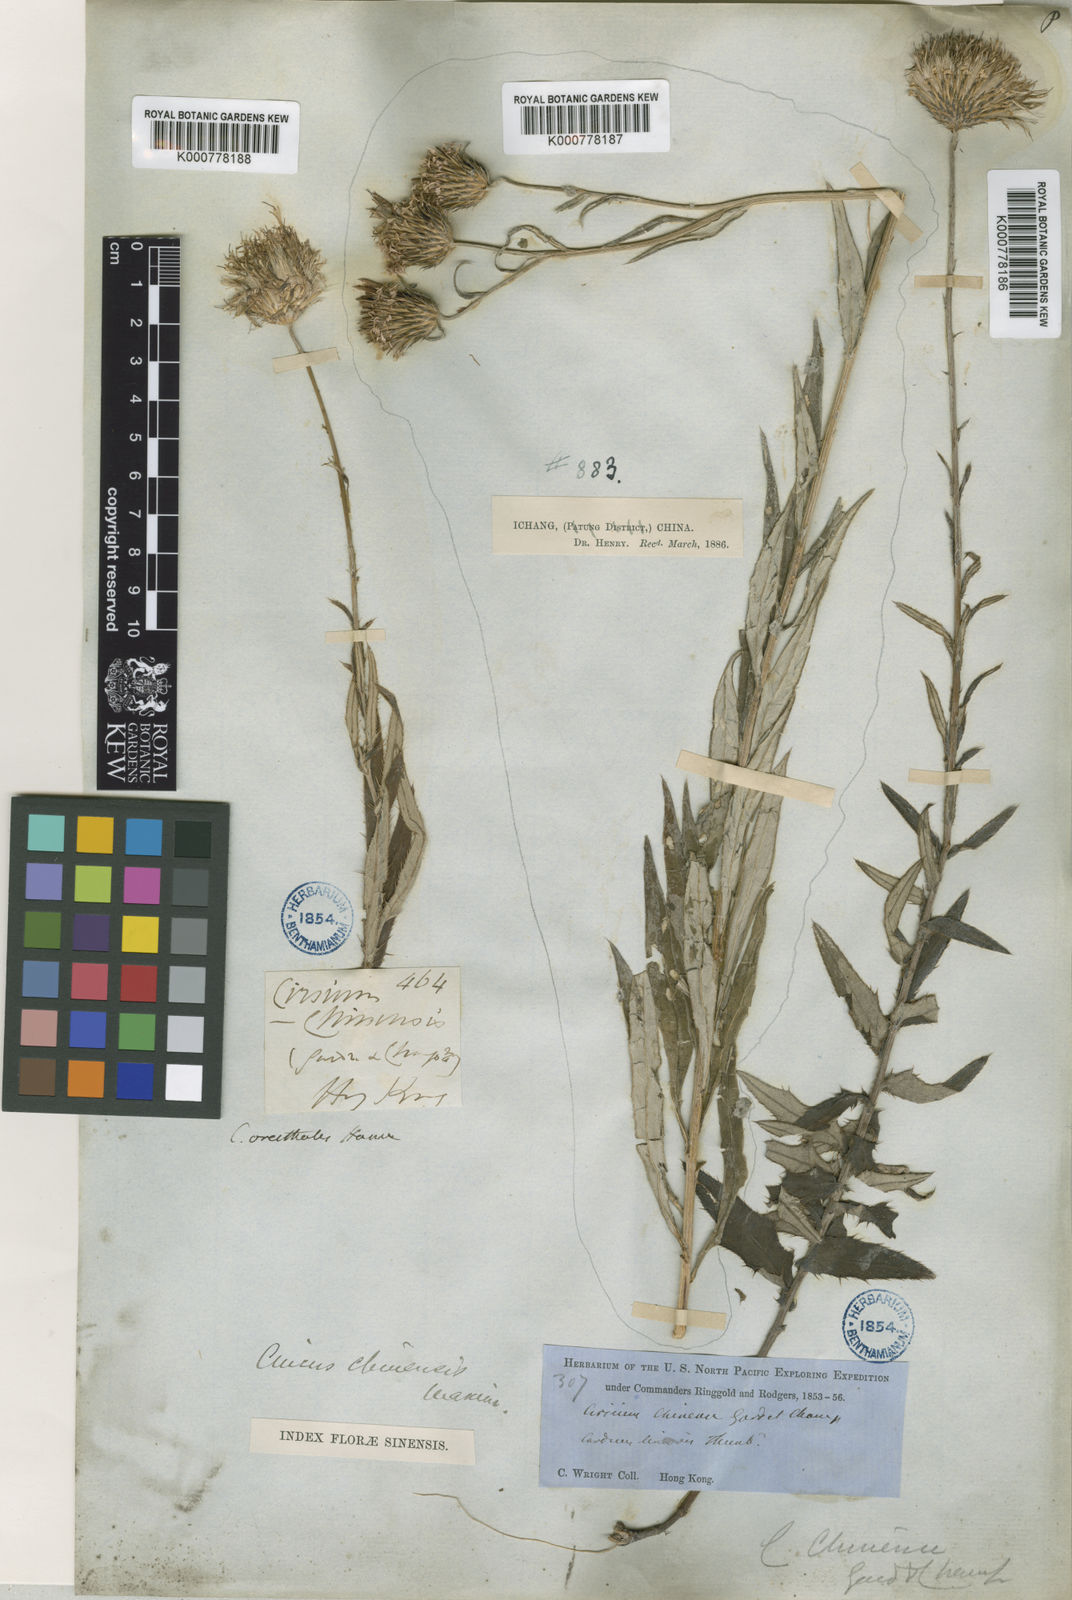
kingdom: Plantae
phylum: Tracheophyta
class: Magnoliopsida
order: Asterales
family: Asteraceae
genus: Cirsium
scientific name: Cirsium chinense
